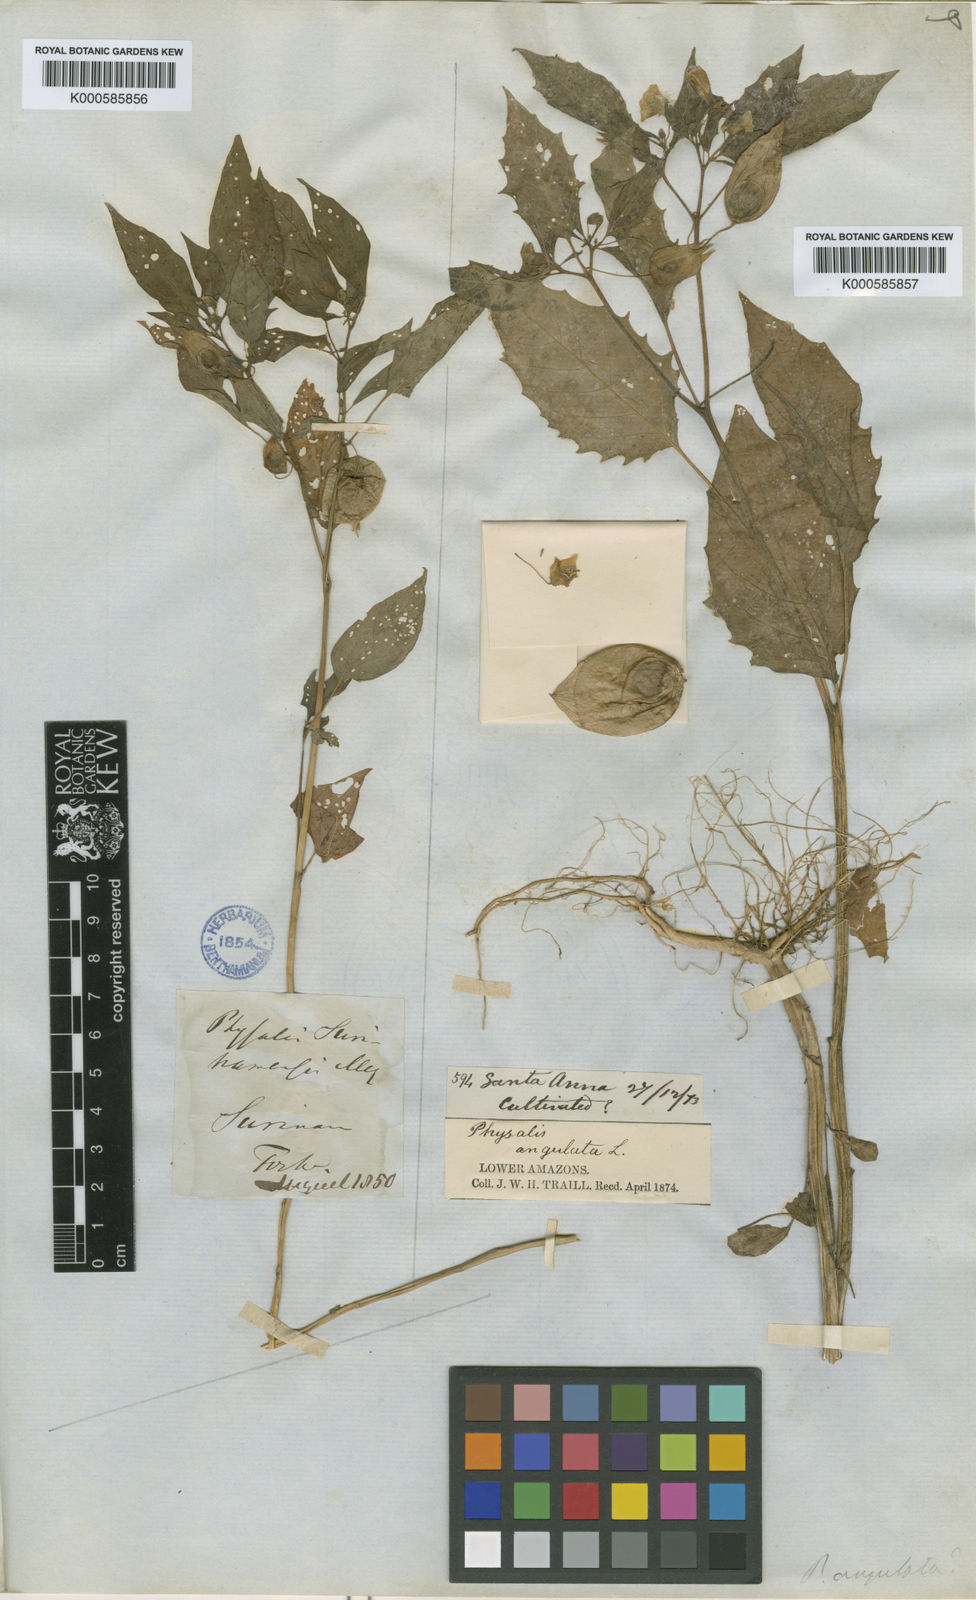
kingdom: Plantae
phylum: Tracheophyta
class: Magnoliopsida
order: Solanales
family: Solanaceae
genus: Physalis
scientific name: Physalis angulata
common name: Angular winter-cherry
